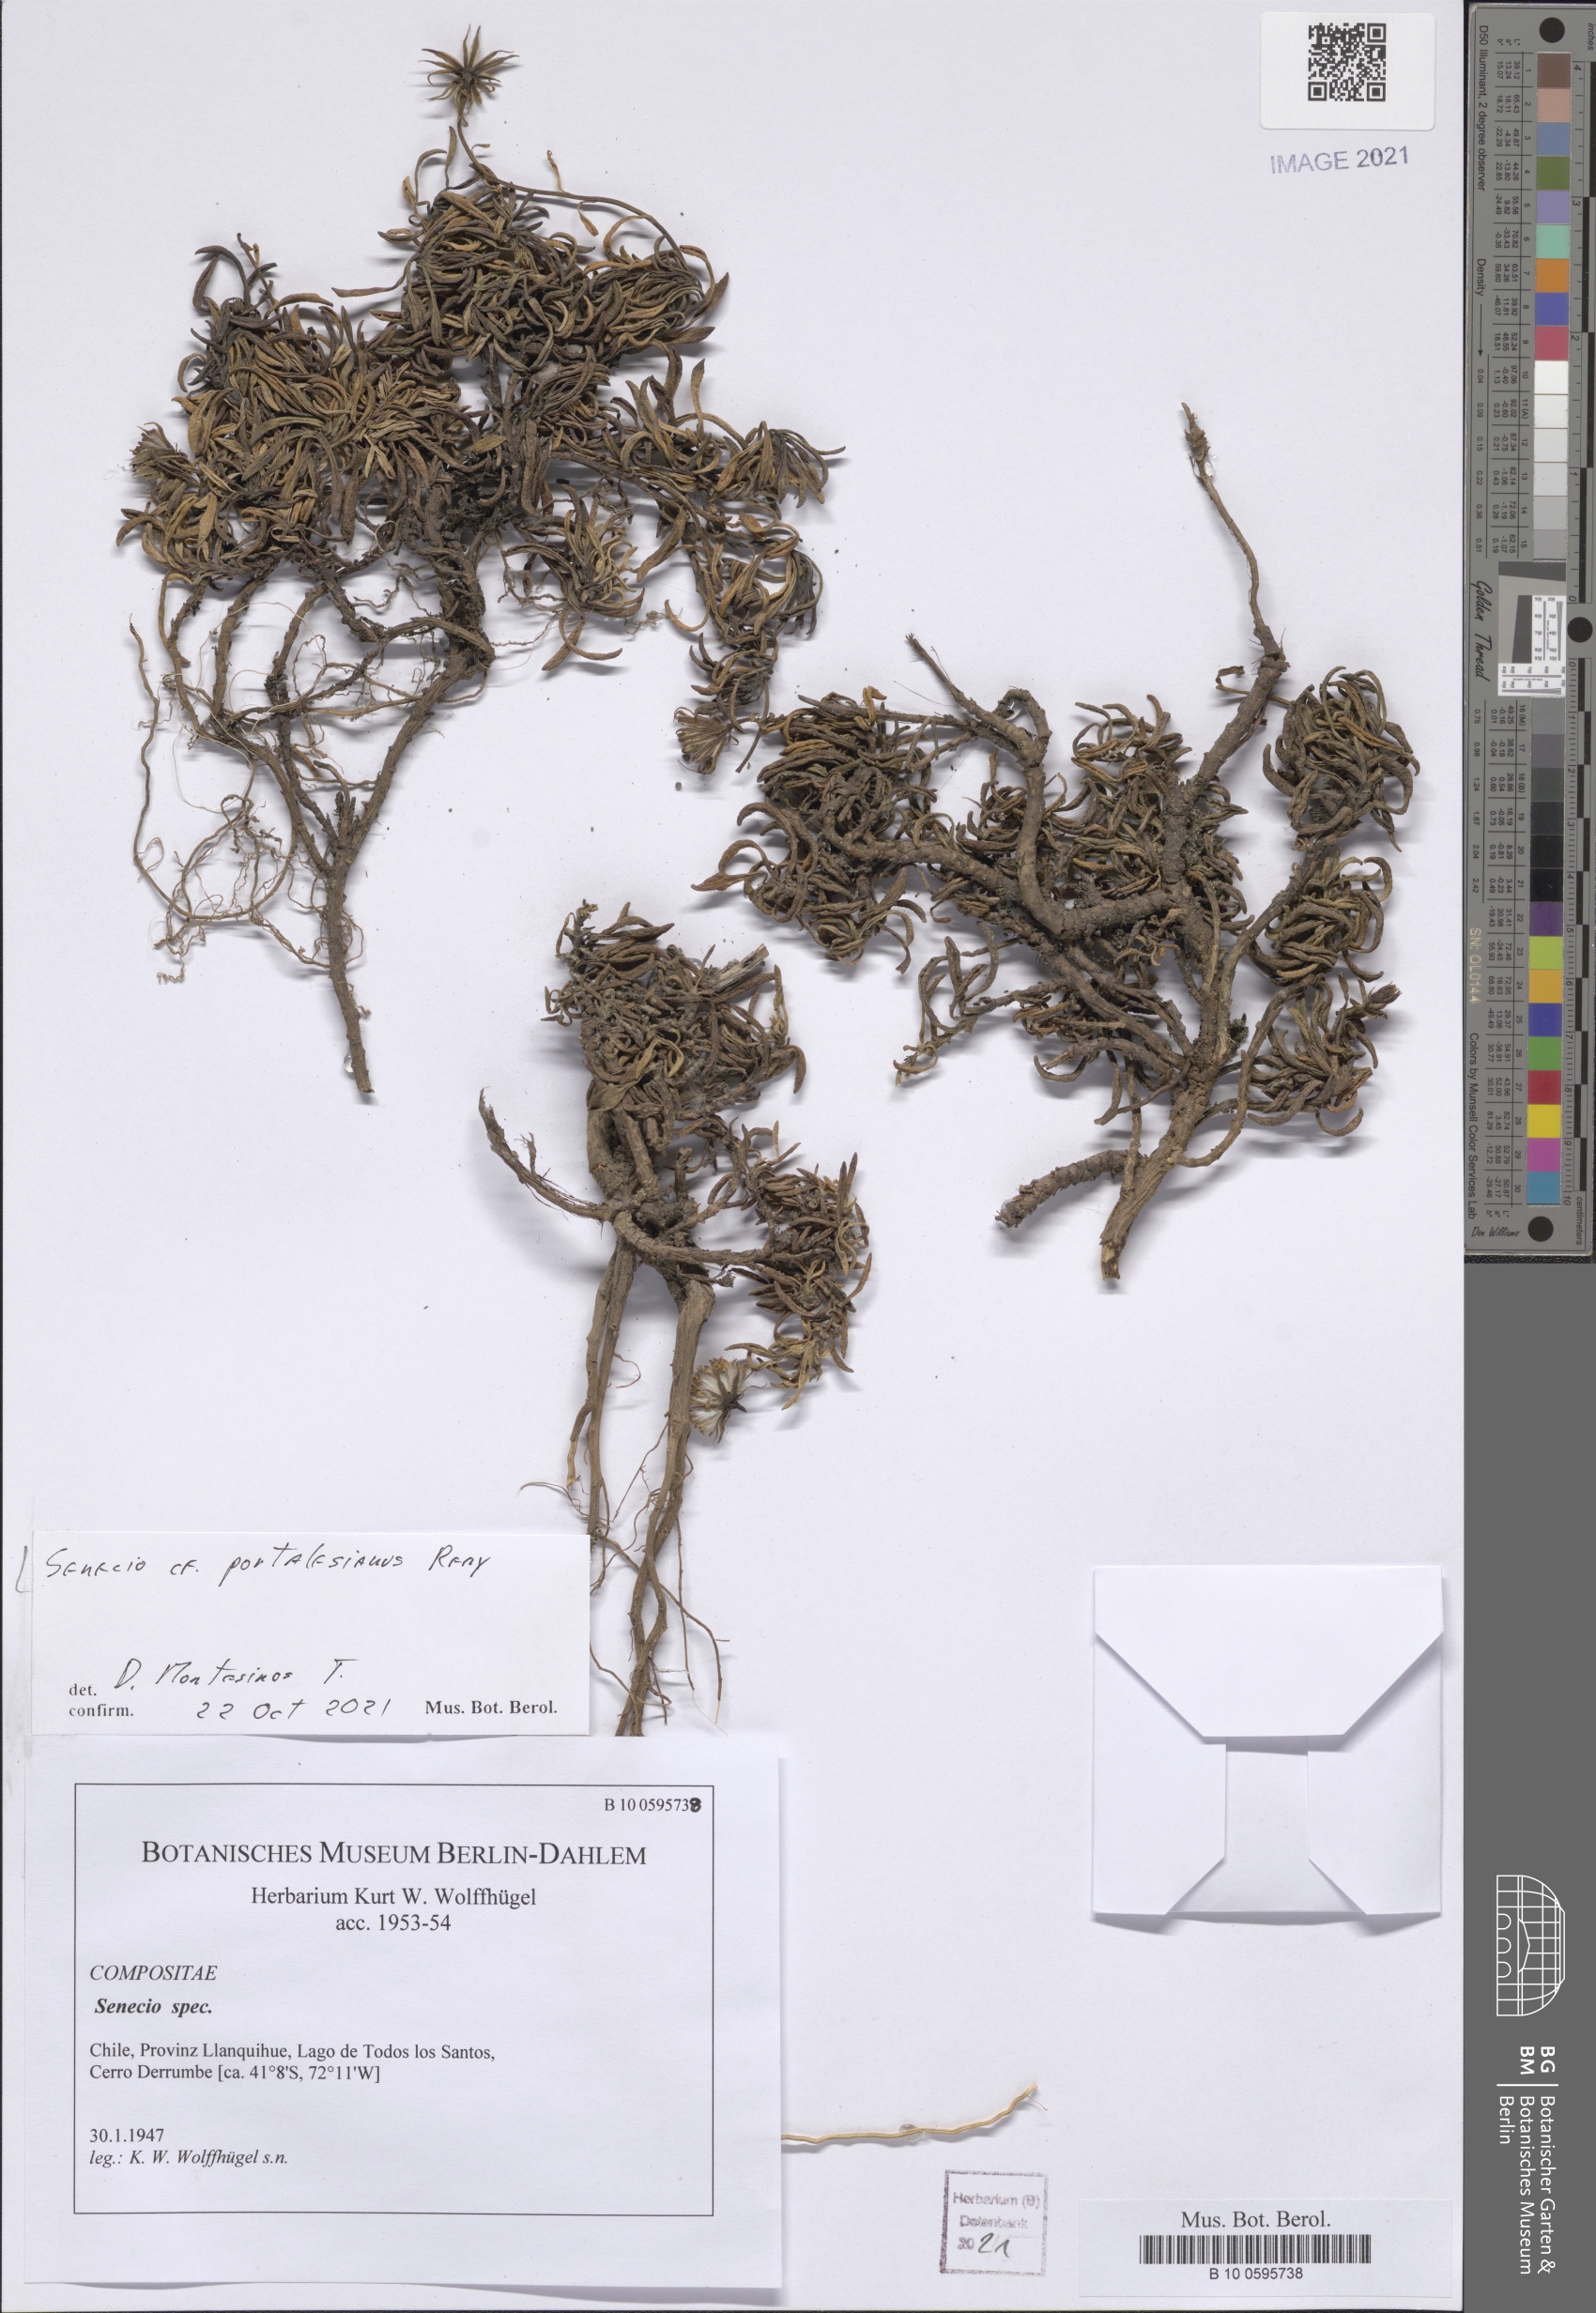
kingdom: Plantae
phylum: Tracheophyta
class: Magnoliopsida
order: Asterales
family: Asteraceae
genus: Senecio
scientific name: Senecio portalesianus
